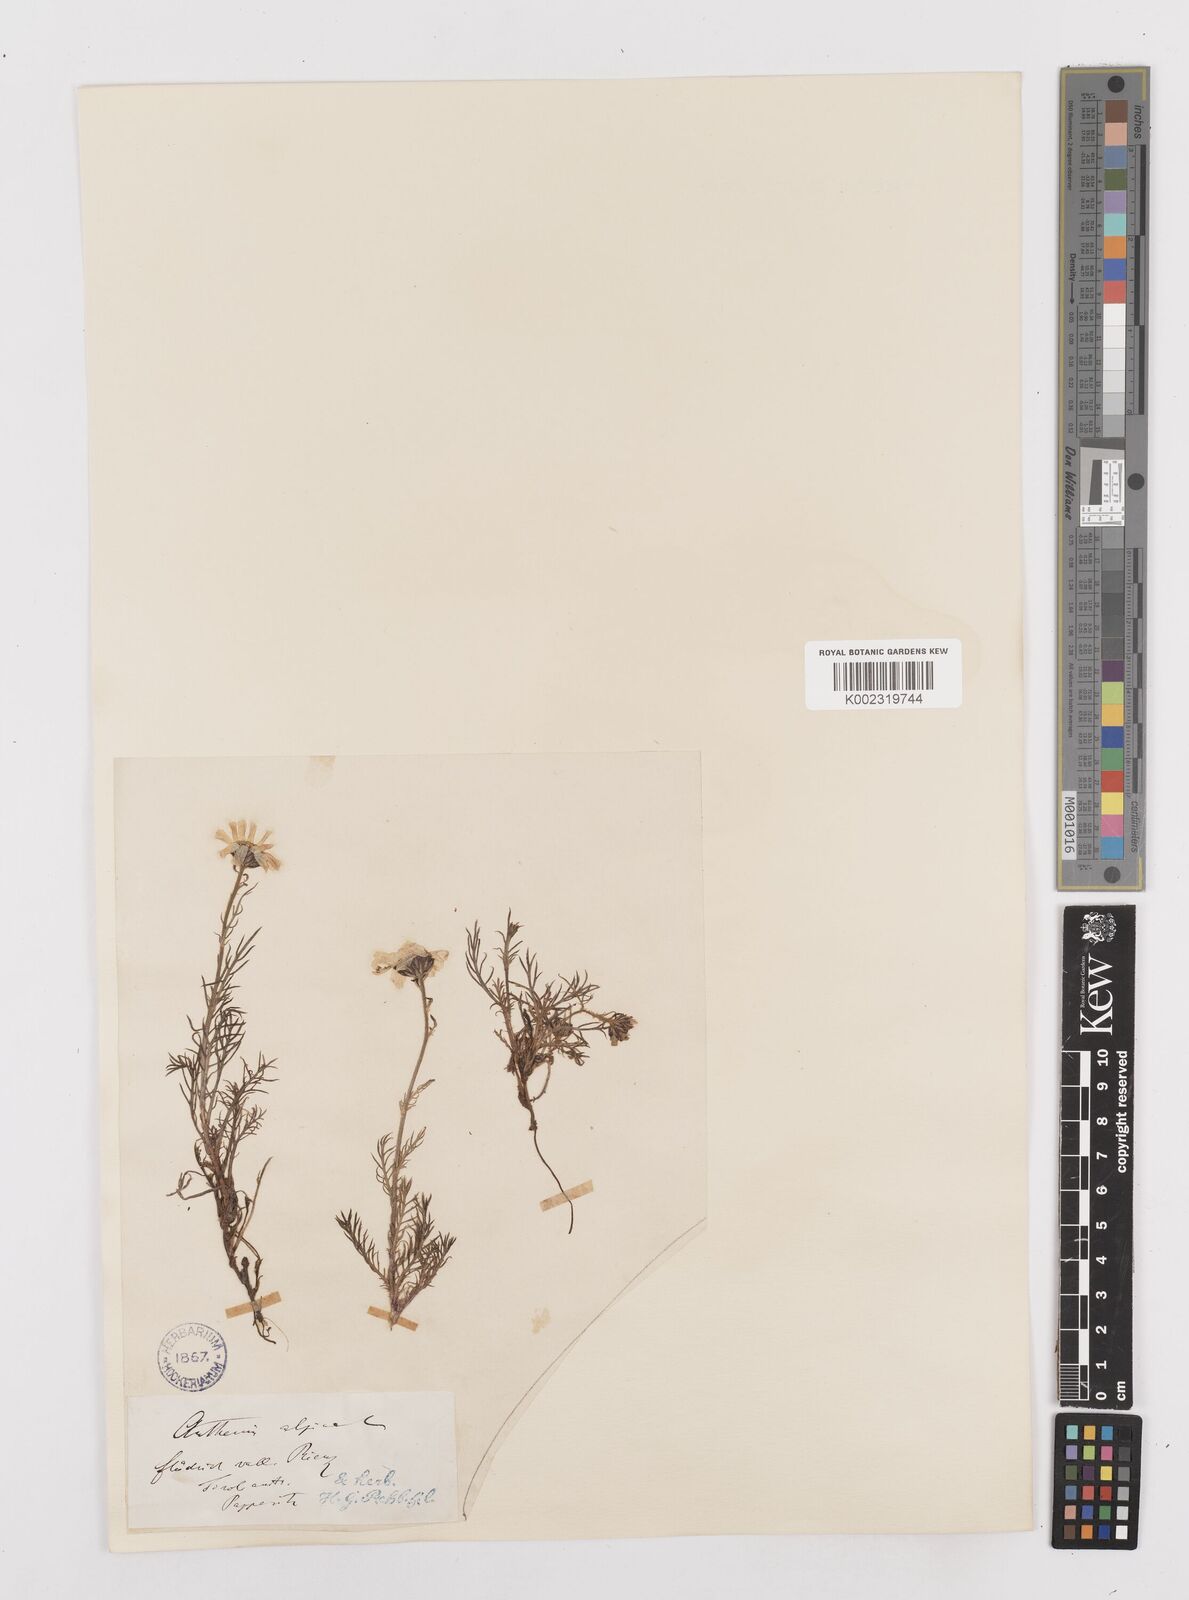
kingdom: Plantae
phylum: Tracheophyta
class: Magnoliopsida
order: Asterales
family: Asteraceae
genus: Achillea
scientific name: Achillea oxyloba
